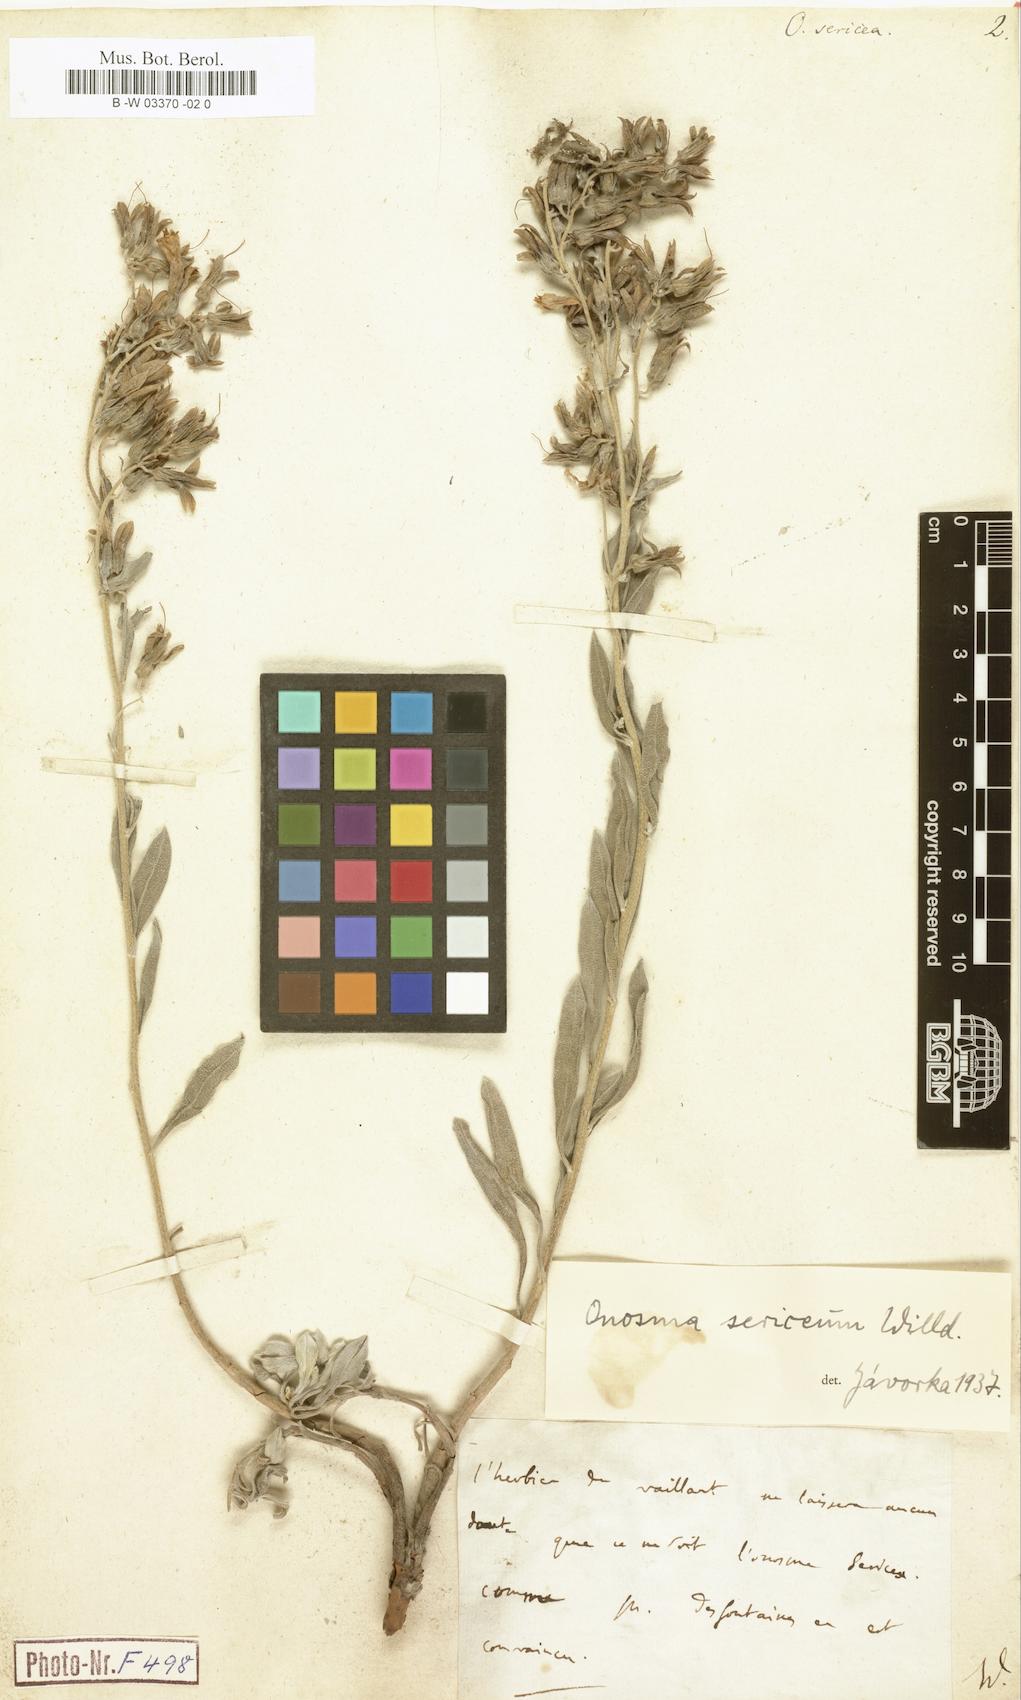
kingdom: Plantae
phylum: Tracheophyta
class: Magnoliopsida
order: Boraginales
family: Boraginaceae
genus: Onosma
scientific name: Onosma sericea
